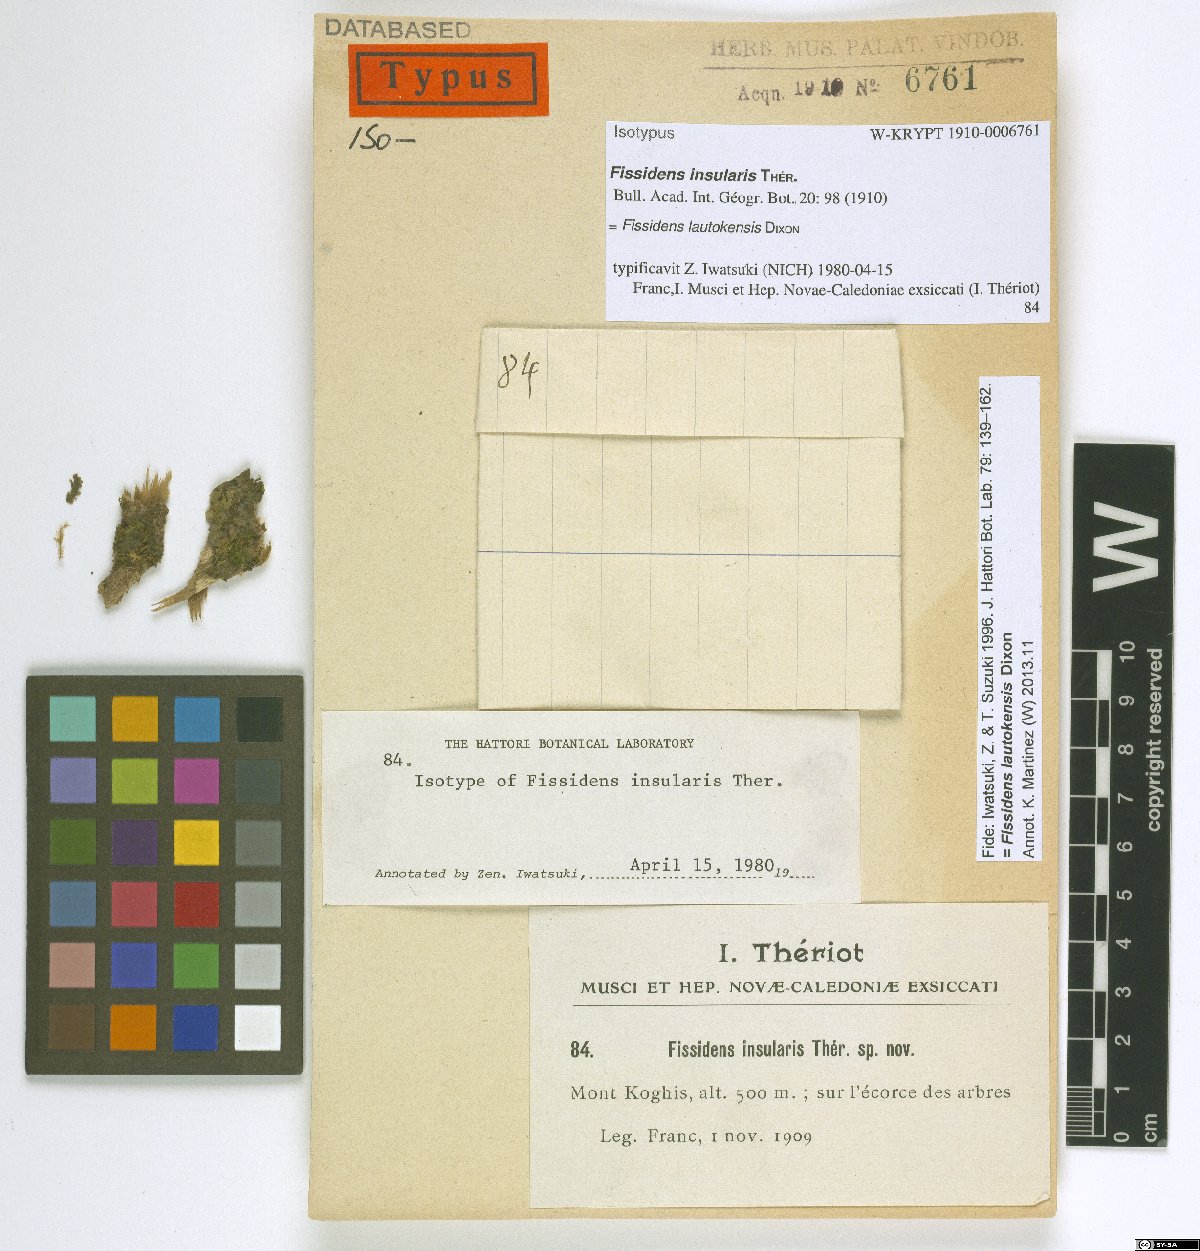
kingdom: Plantae
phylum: Bryophyta
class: Bryopsida
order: Dicranales
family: Fissidentaceae
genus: Fissidens
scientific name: Fissidens lautokensis
